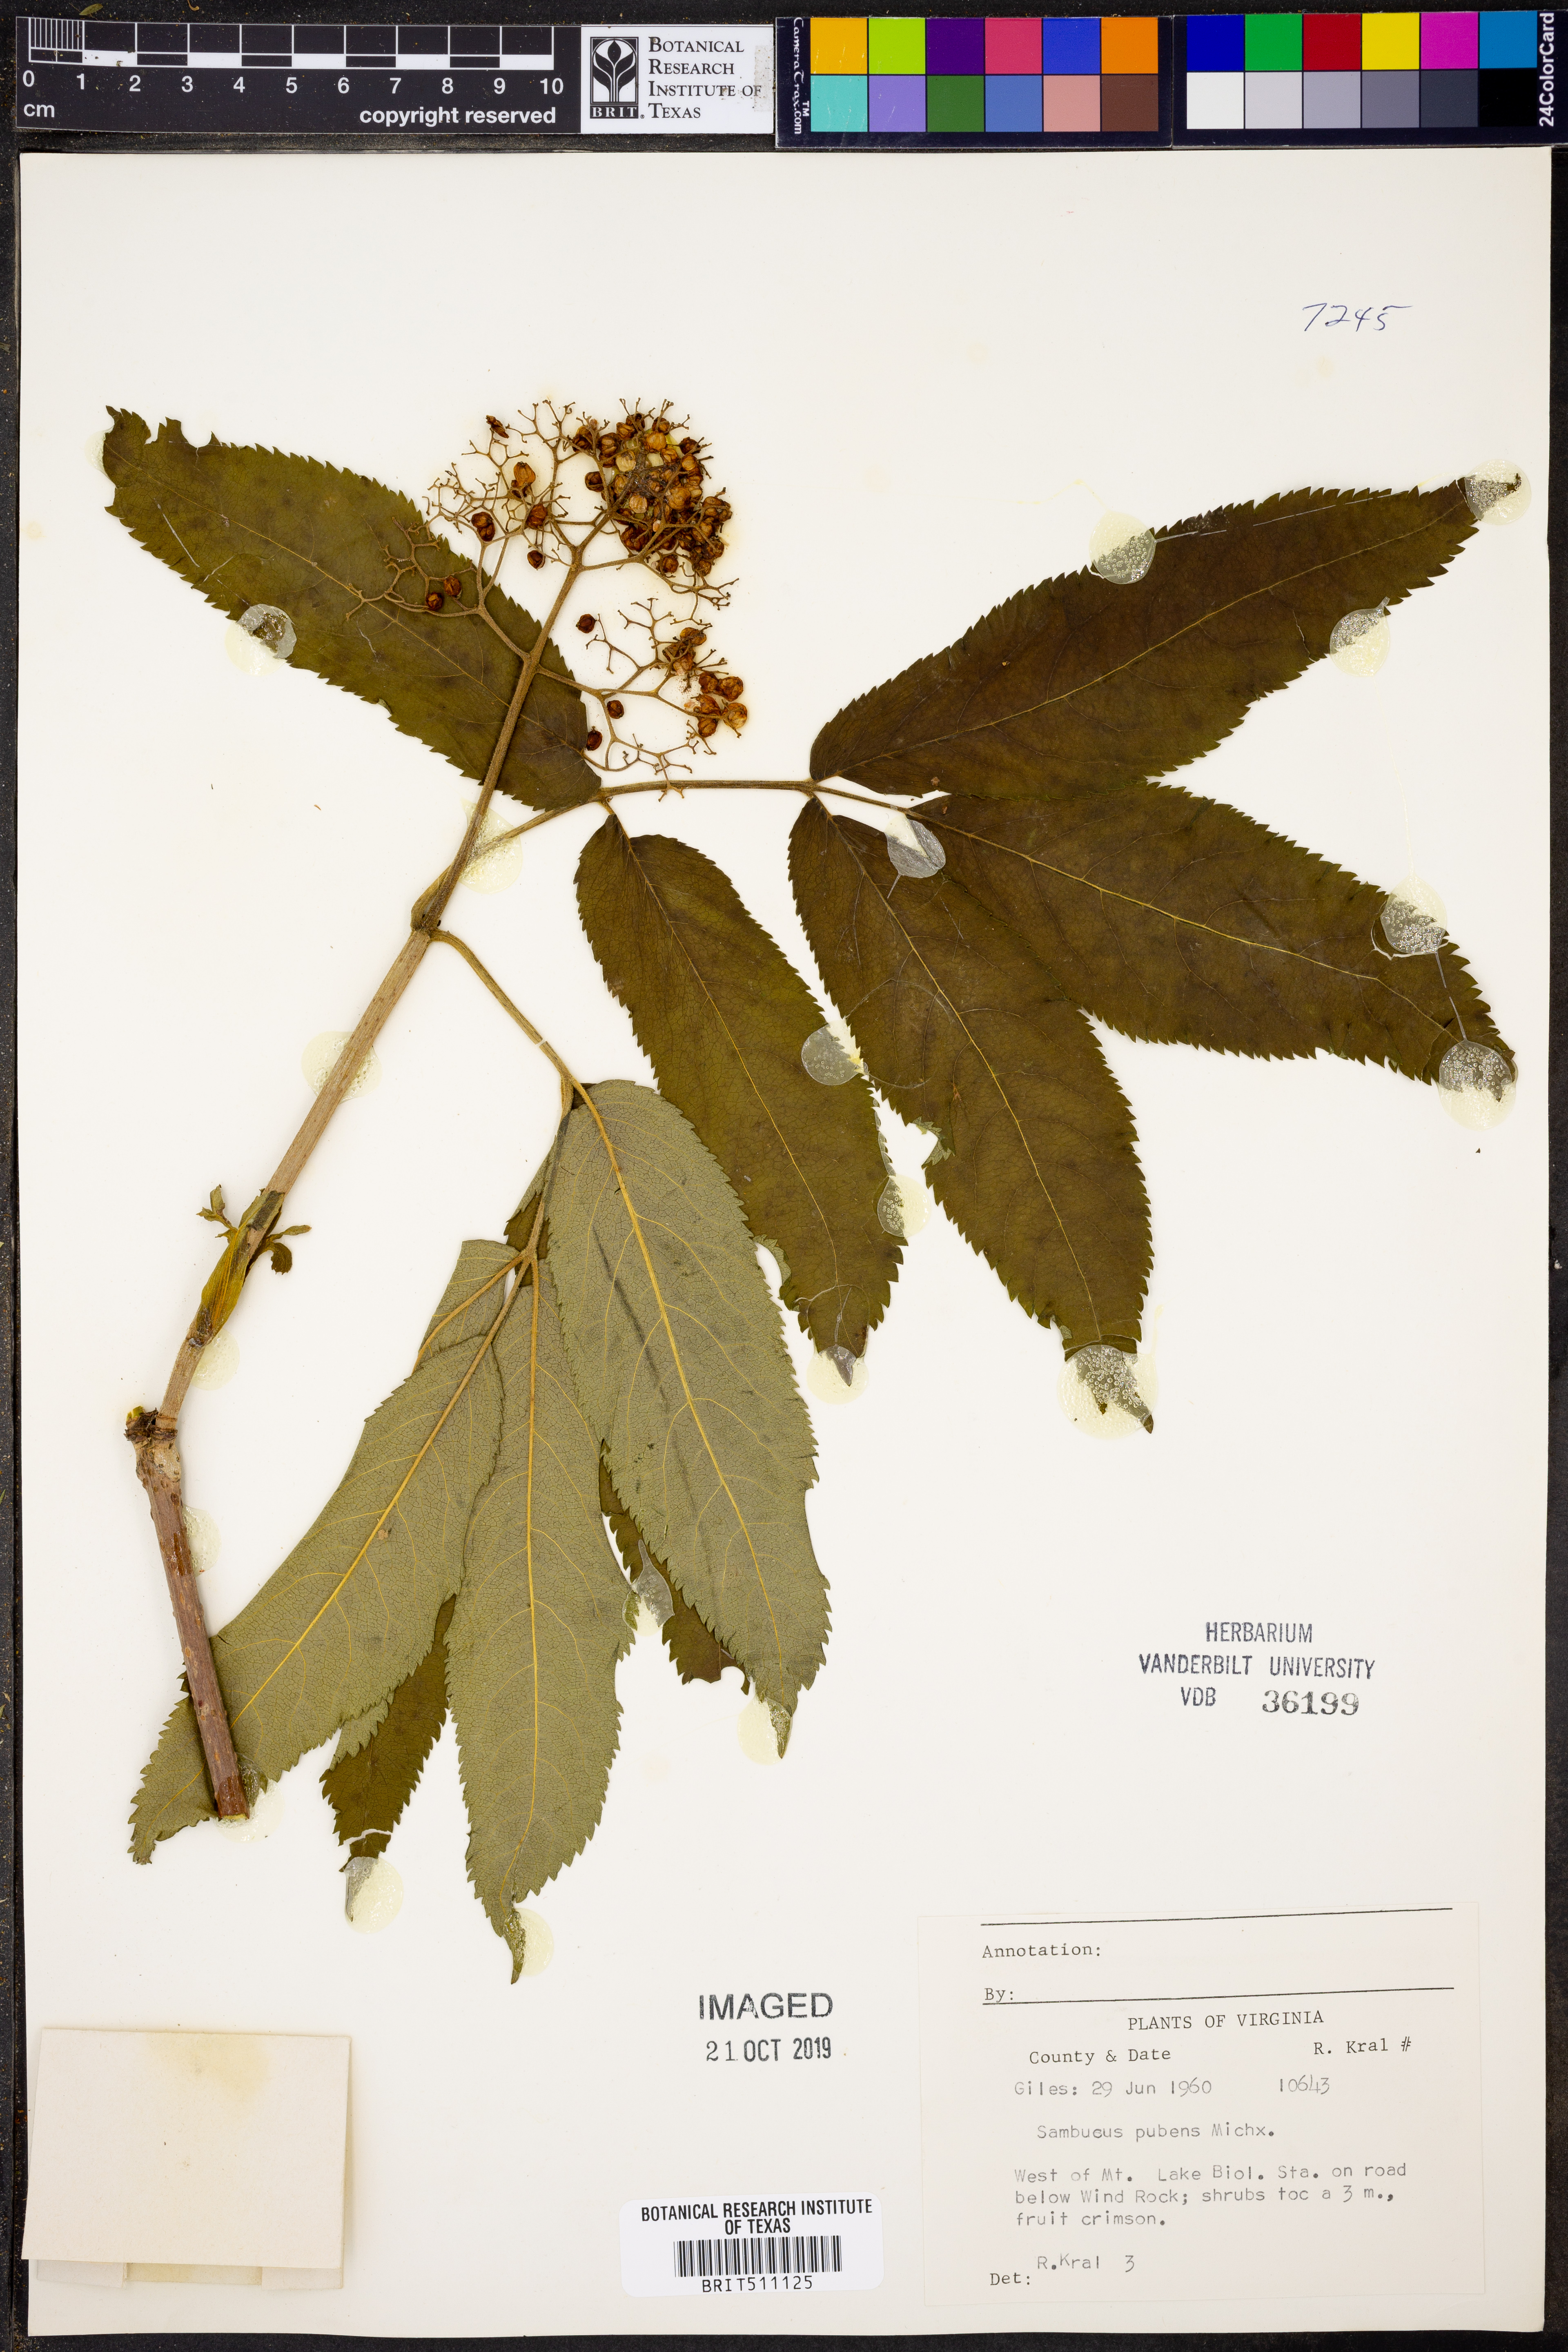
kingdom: Plantae
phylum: Tracheophyta
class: Magnoliopsida
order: Dipsacales
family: Viburnaceae
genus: Sambucus
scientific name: Sambucus racemosa
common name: Red-berried elder
